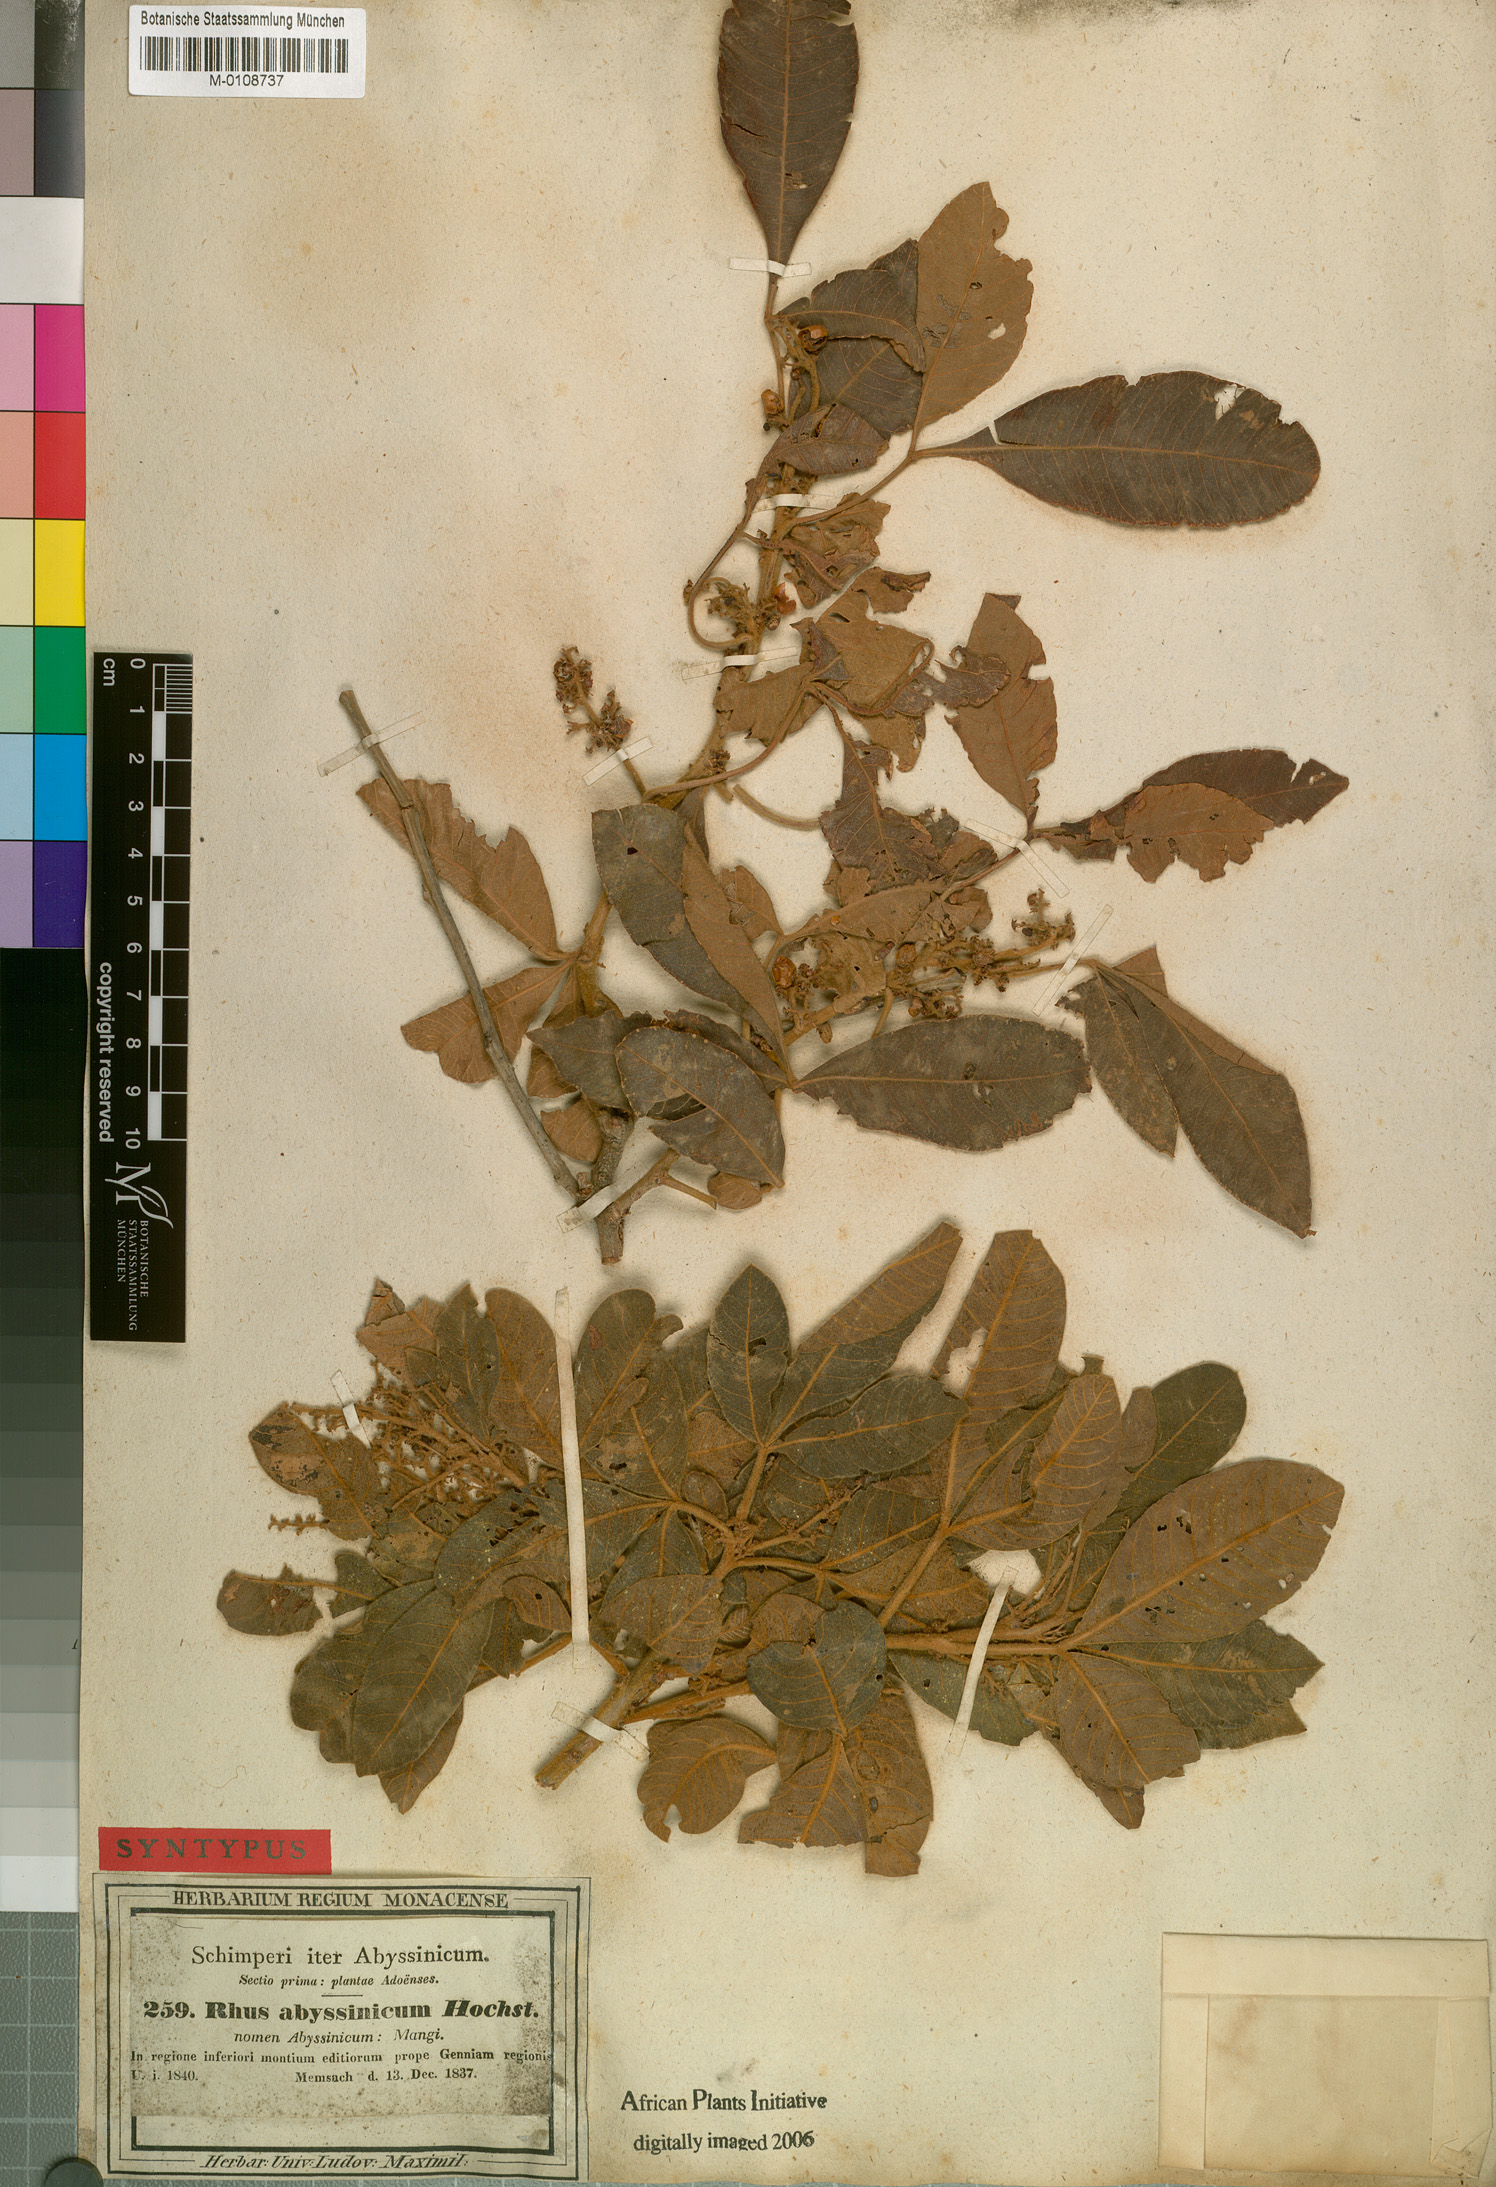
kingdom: Plantae
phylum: Tracheophyta
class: Magnoliopsida
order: Sapindales
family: Anacardiaceae
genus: Searsia
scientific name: Searsia glutinosa
